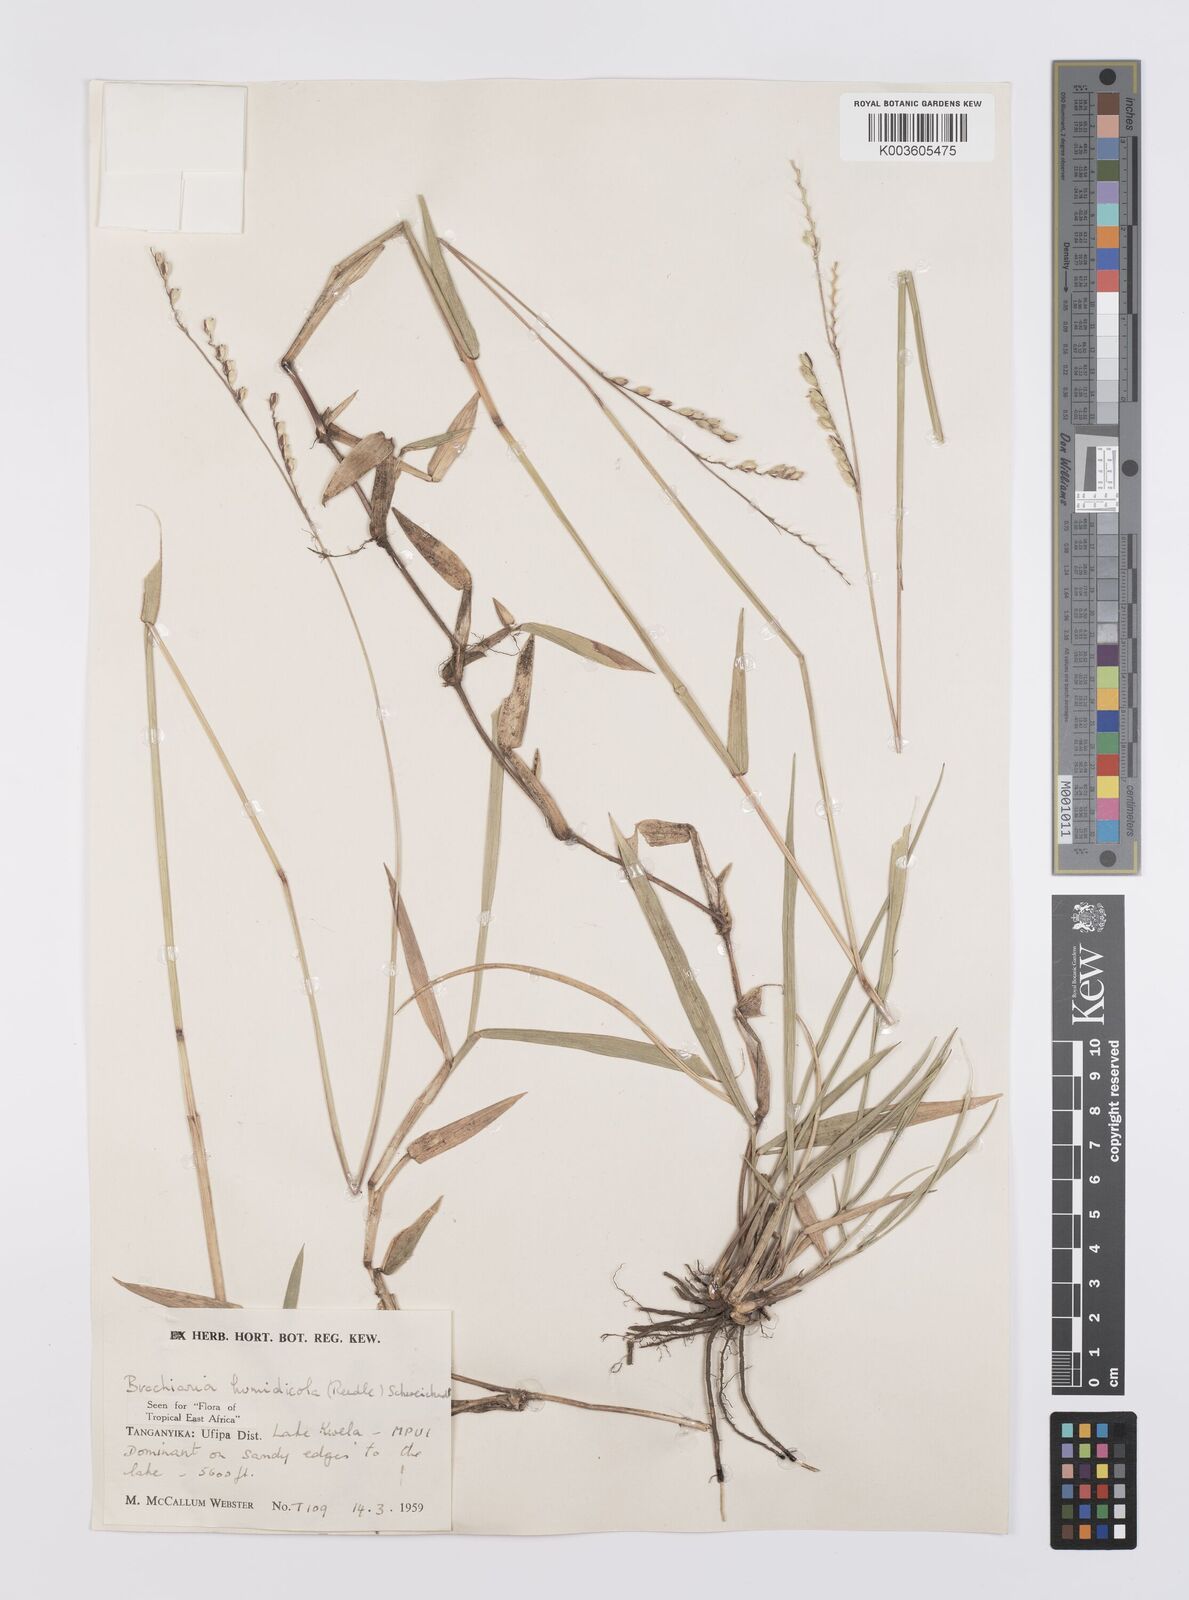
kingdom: Plantae
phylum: Tracheophyta
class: Liliopsida
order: Poales
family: Poaceae
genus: Urochloa
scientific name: Urochloa dictyoneura
